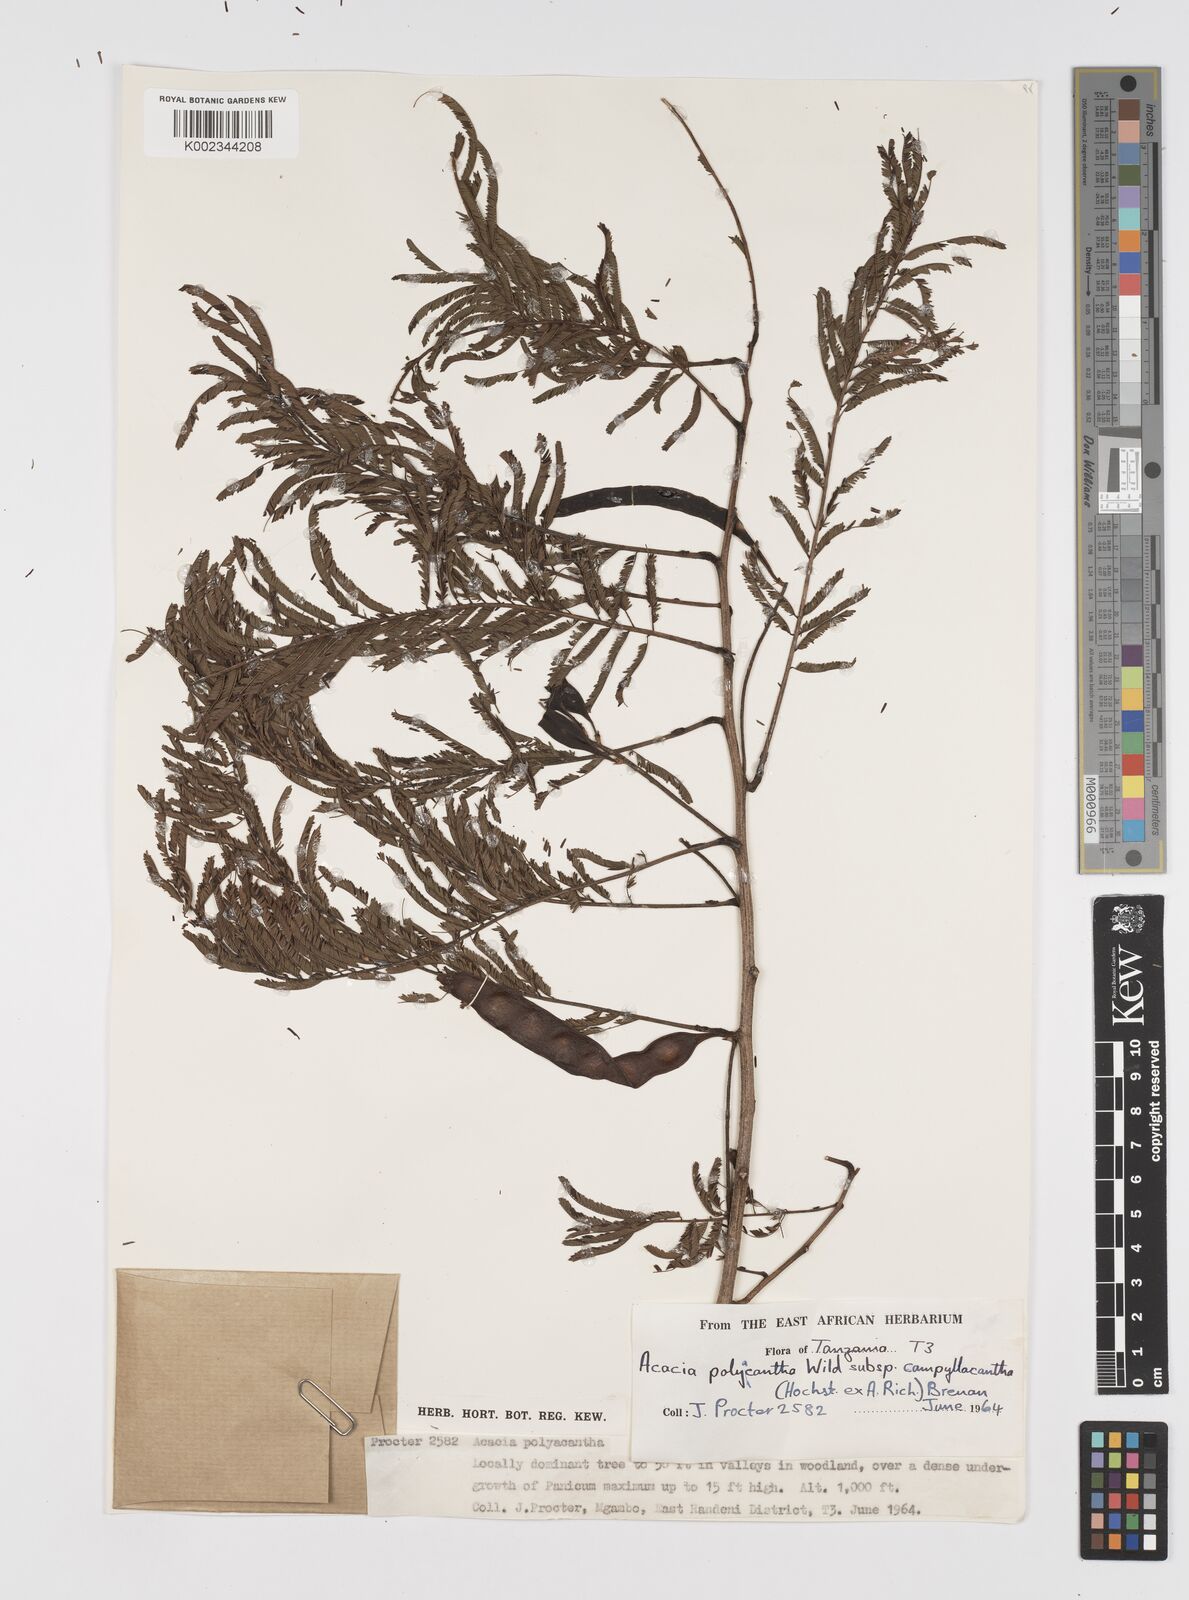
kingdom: Plantae
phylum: Tracheophyta
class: Magnoliopsida
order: Fabales
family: Fabaceae
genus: Senegalia
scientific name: Senegalia polyacantha
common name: Whitethorn
